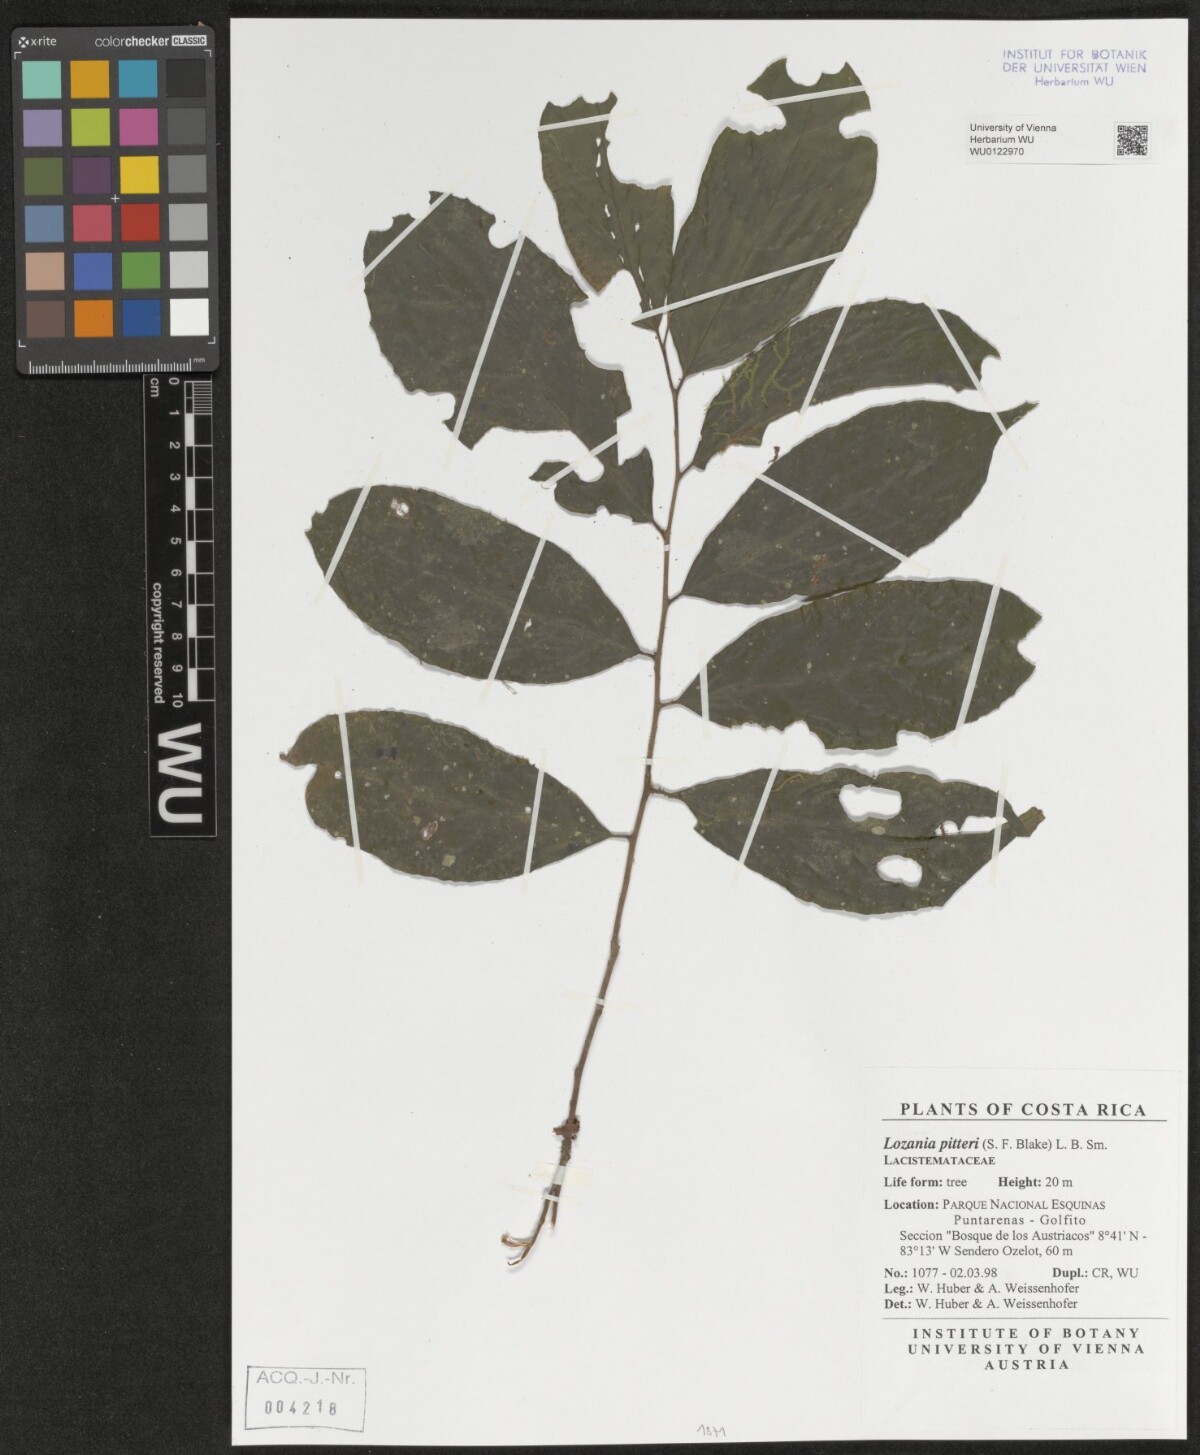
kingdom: Plantae
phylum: Tracheophyta
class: Magnoliopsida
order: Malpighiales
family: Lacistemataceae
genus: Lozania
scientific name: Lozania pittieri
